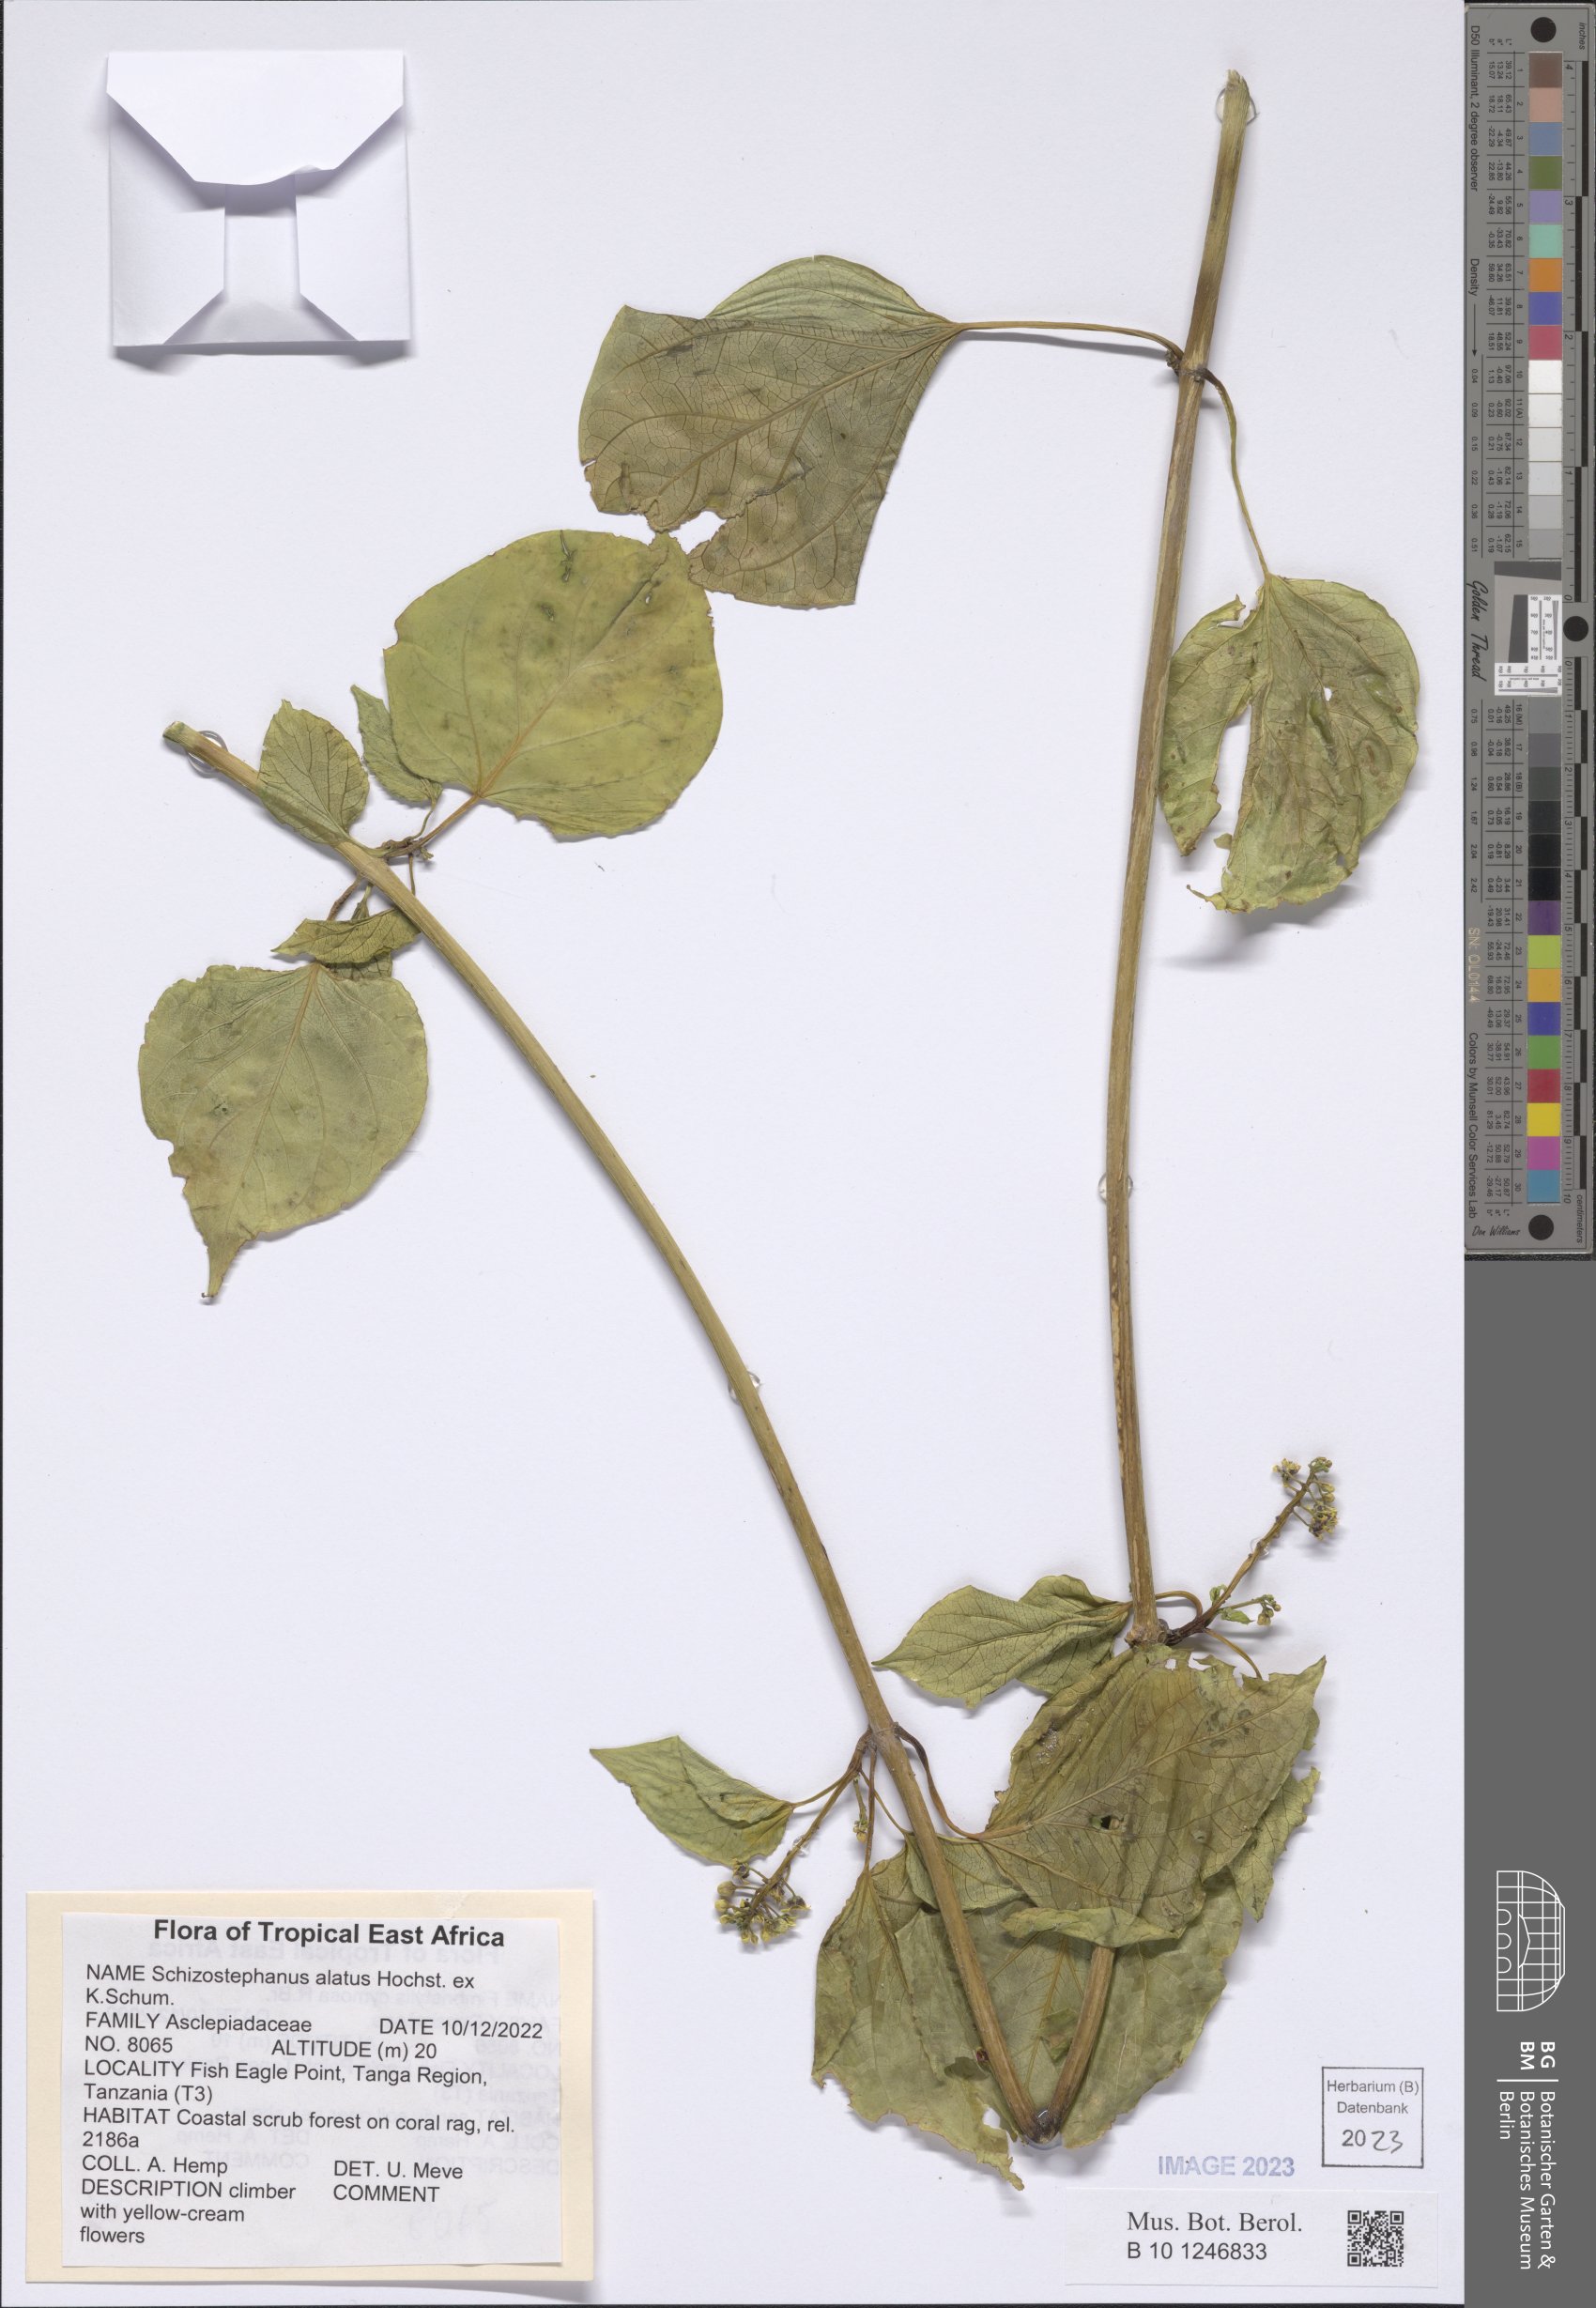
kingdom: Plantae
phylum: Tracheophyta
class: Magnoliopsida
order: Gentianales
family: Apocynaceae
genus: Cynanchum
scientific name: Cynanchum validum
